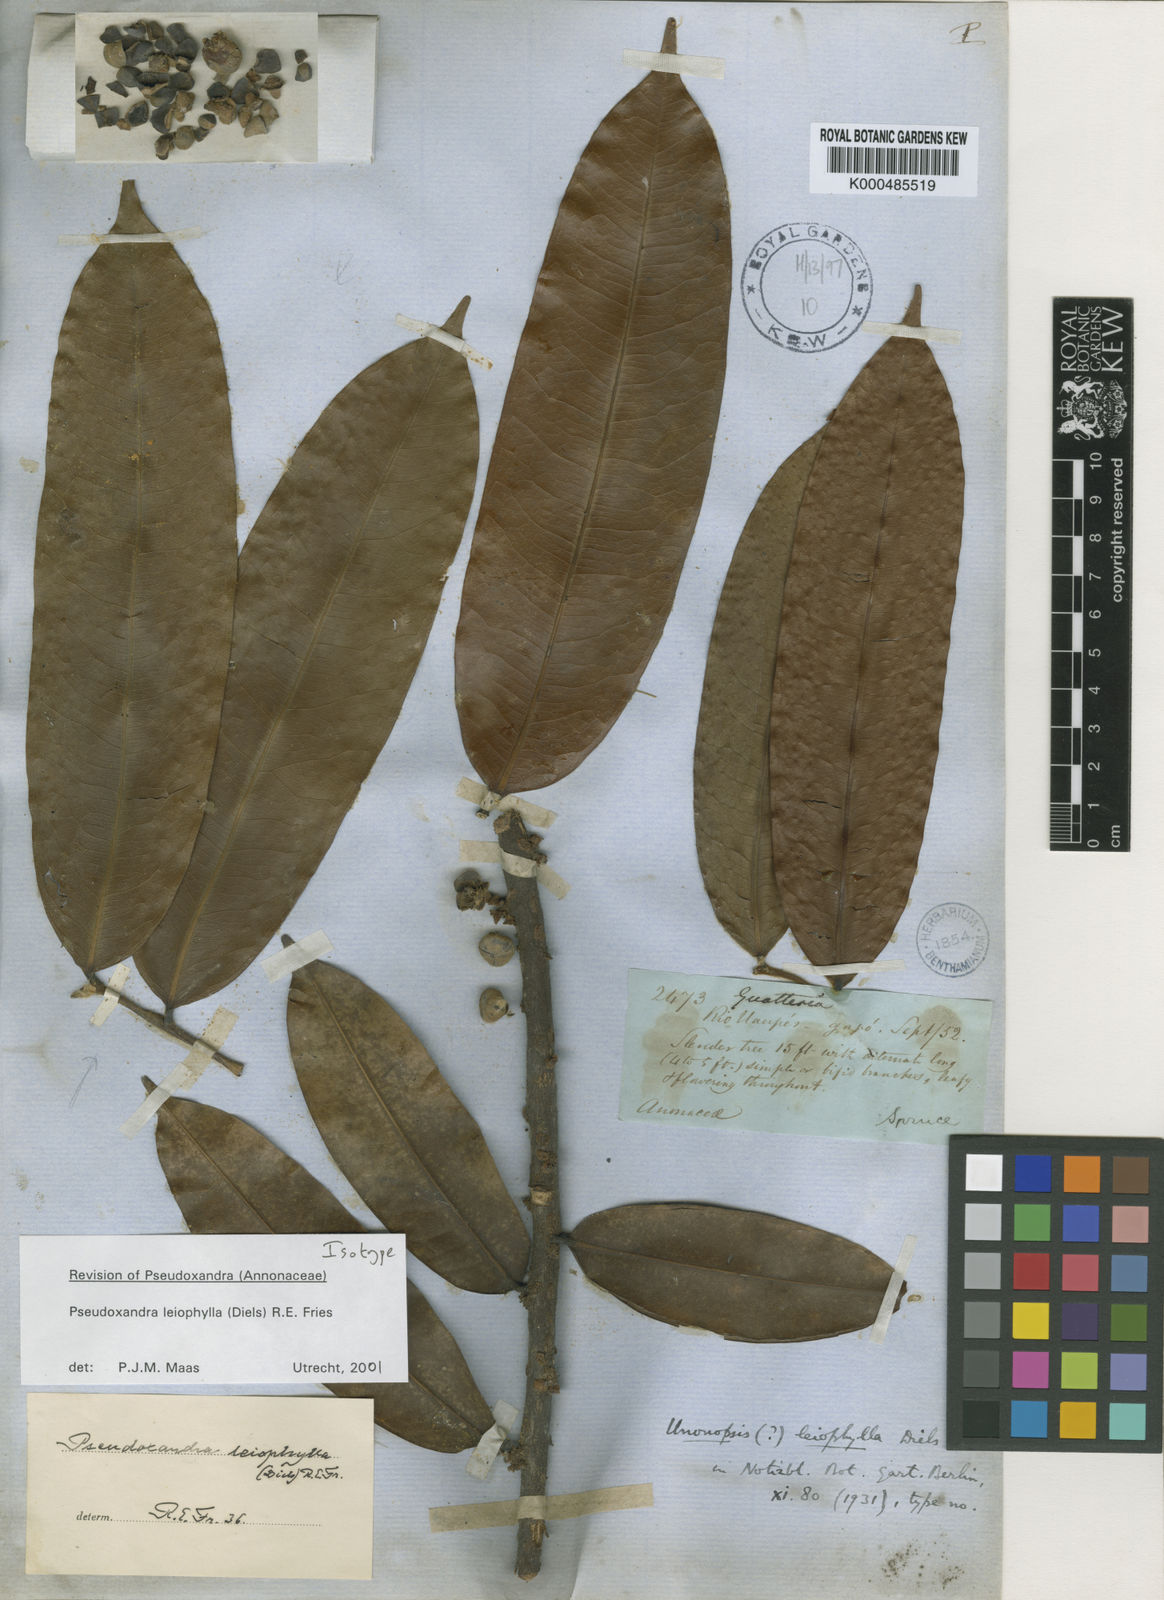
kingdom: Plantae
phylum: Tracheophyta
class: Magnoliopsida
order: Magnoliales
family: Annonaceae
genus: Pseudoxandra
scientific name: Pseudoxandra leiophylla
